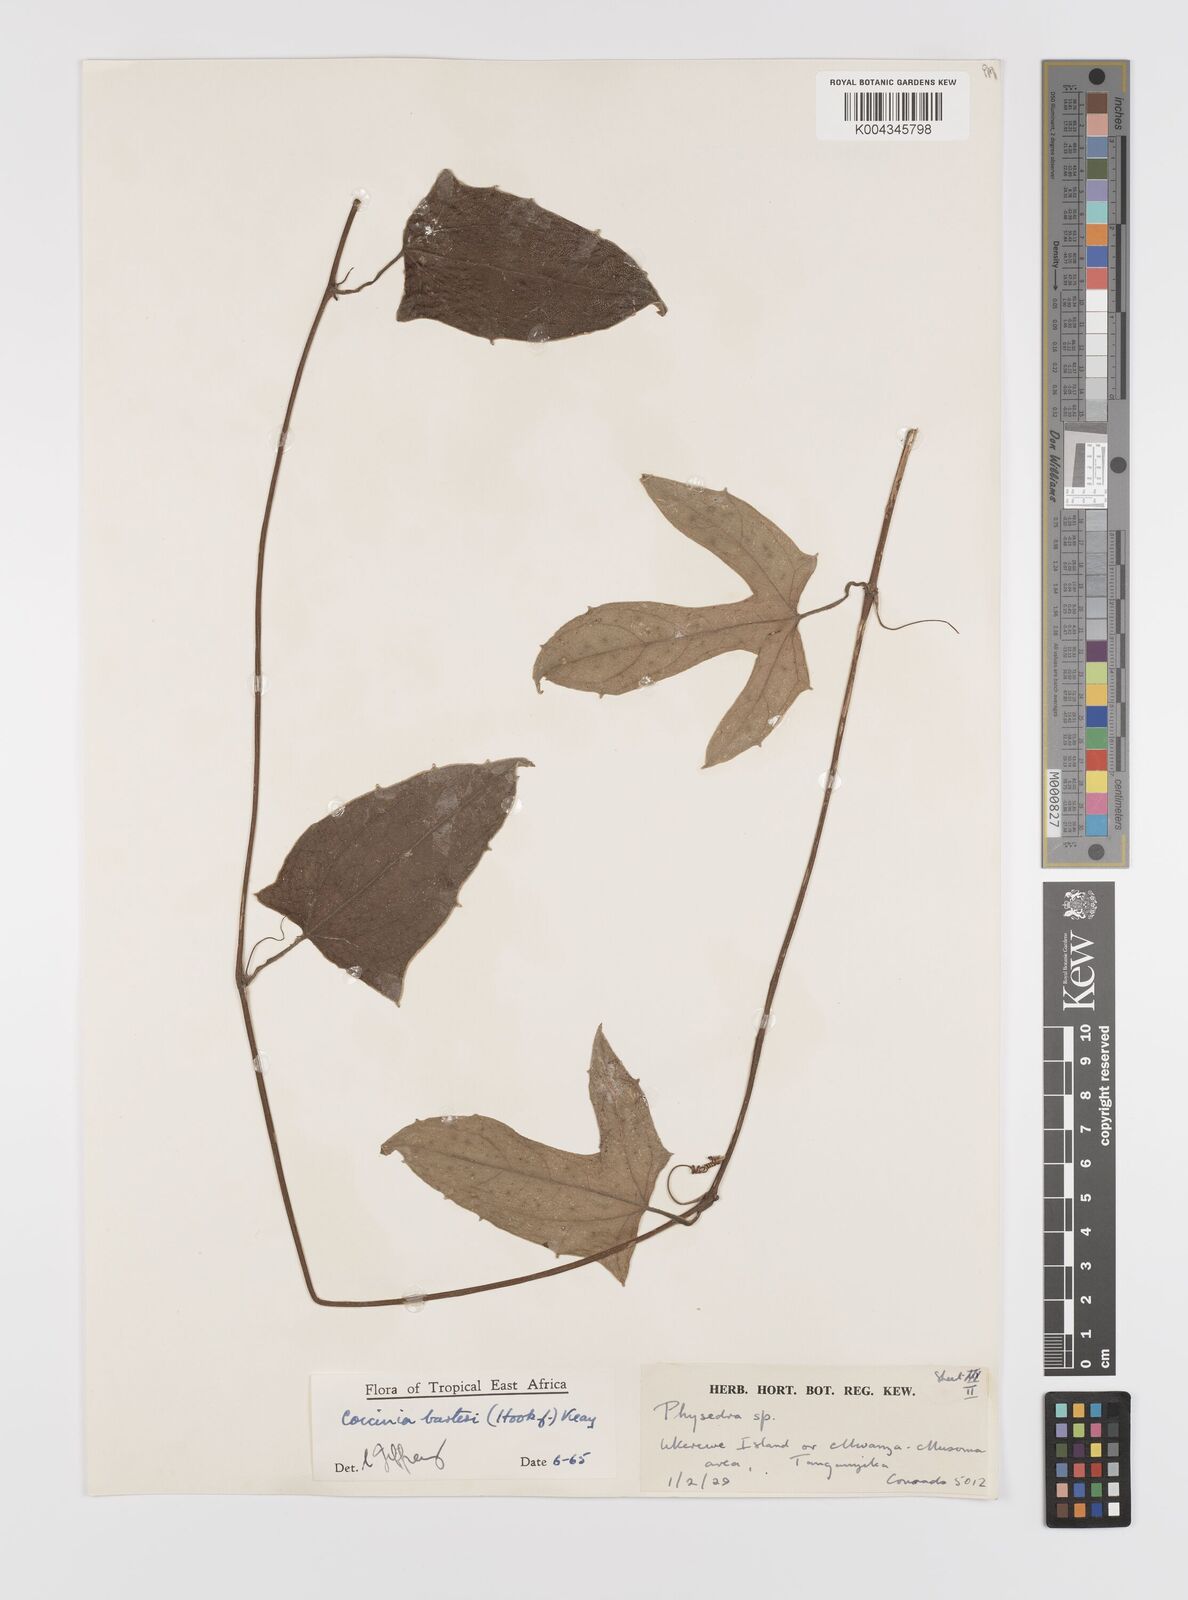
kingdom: Plantae
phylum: Tracheophyta
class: Magnoliopsida
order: Cucurbitales
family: Cucurbitaceae
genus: Coccinia
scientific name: Coccinia barteri
